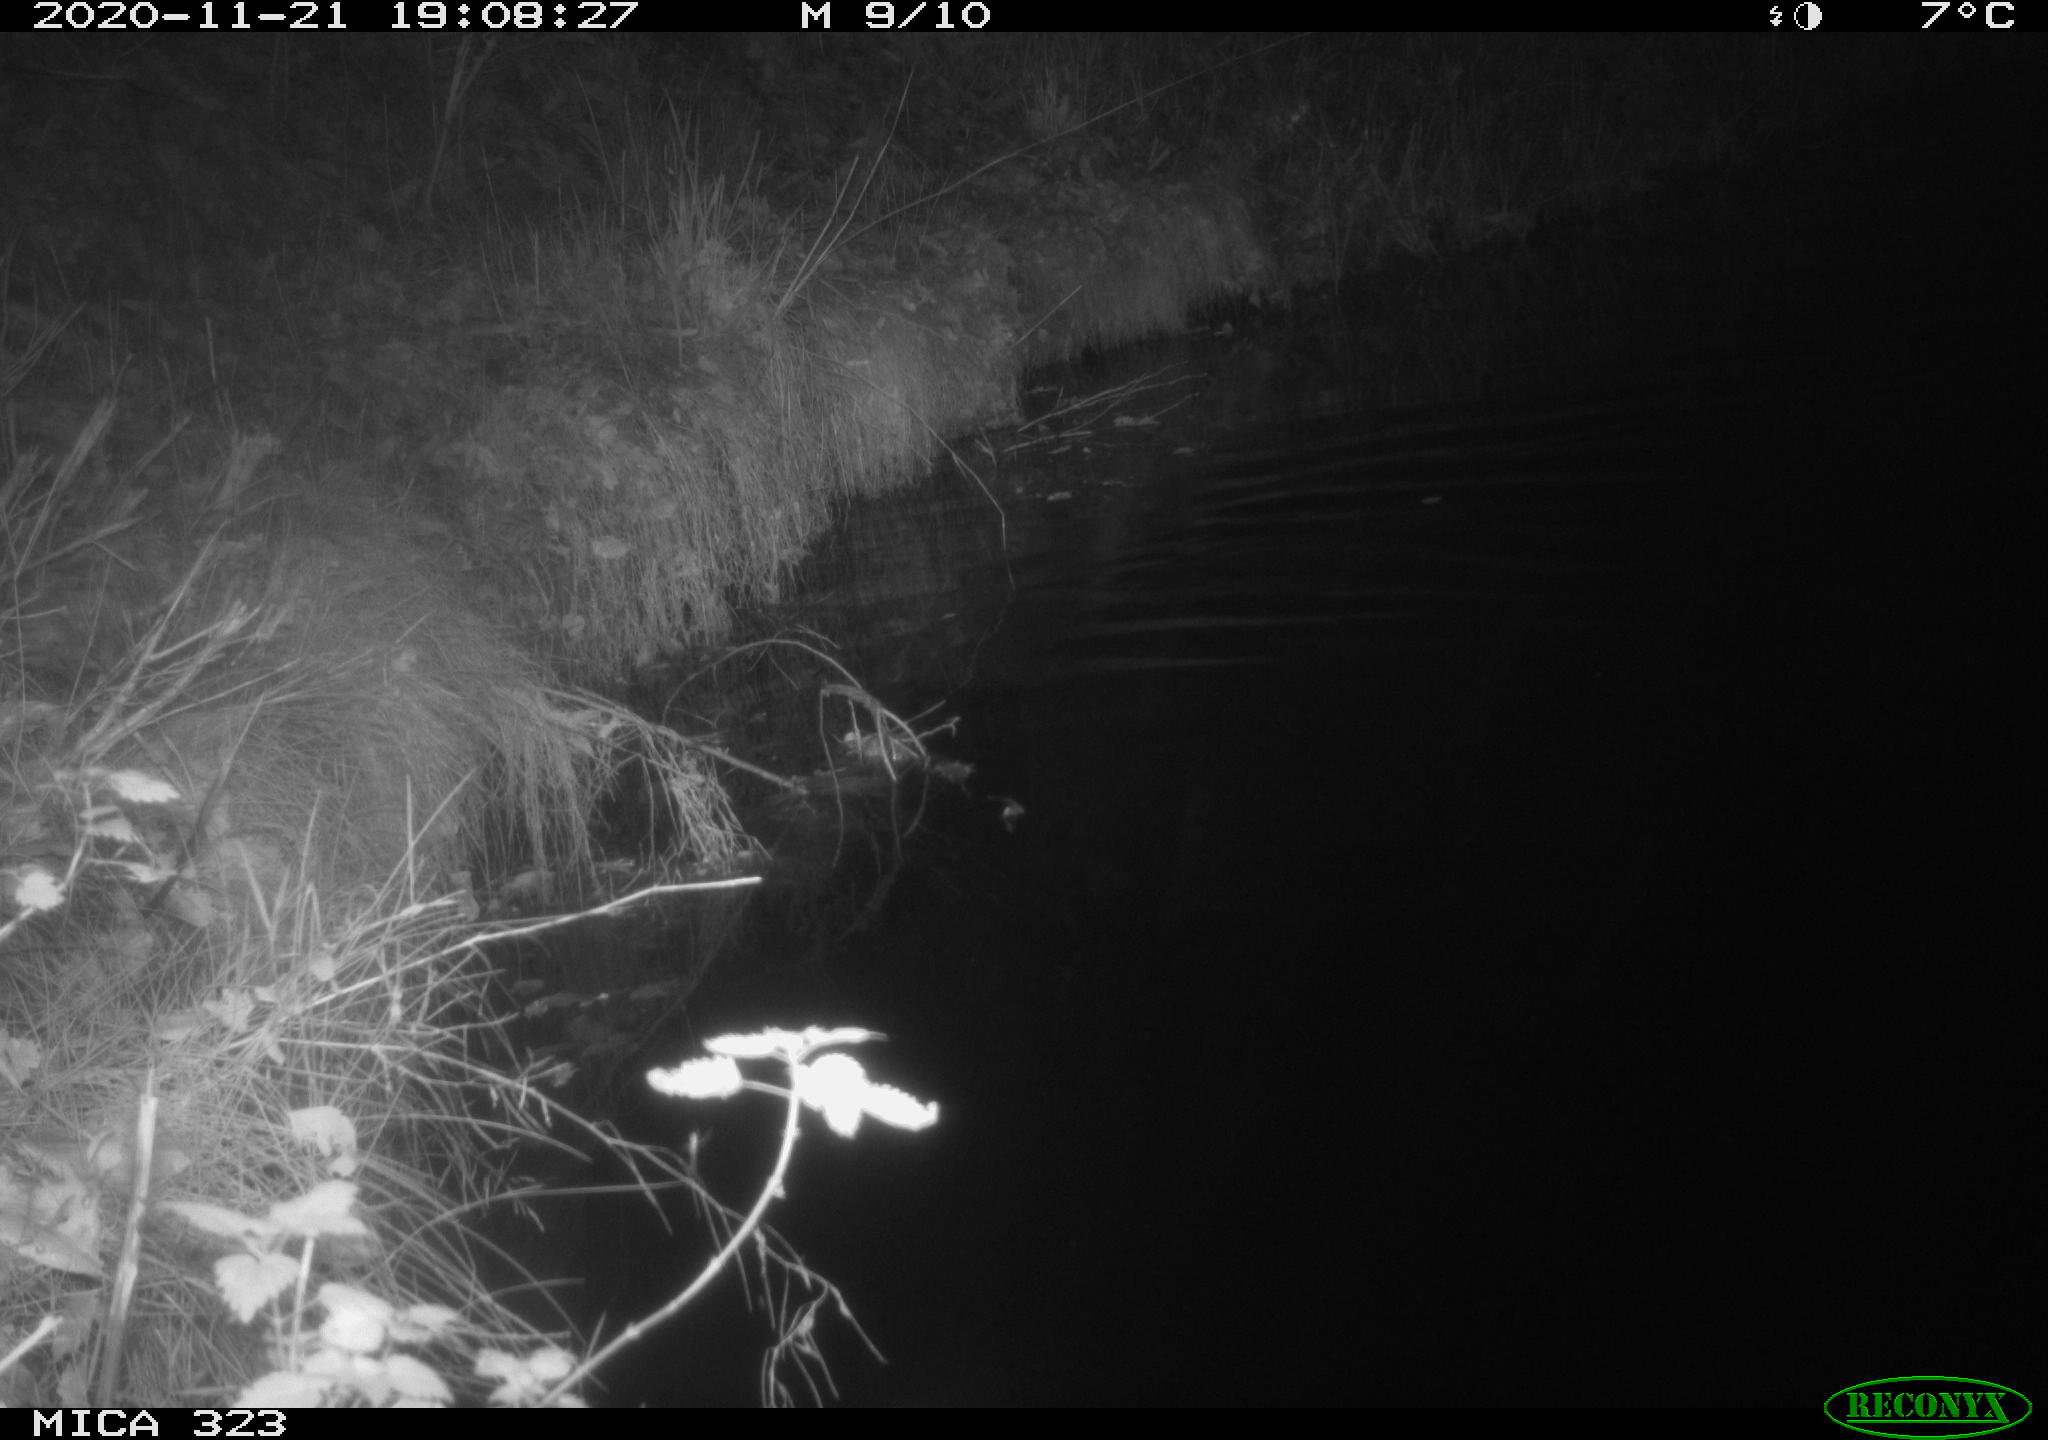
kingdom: Animalia
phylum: Chordata
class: Mammalia
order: Rodentia
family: Myocastoridae
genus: Myocastor
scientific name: Myocastor coypus
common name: Coypu
